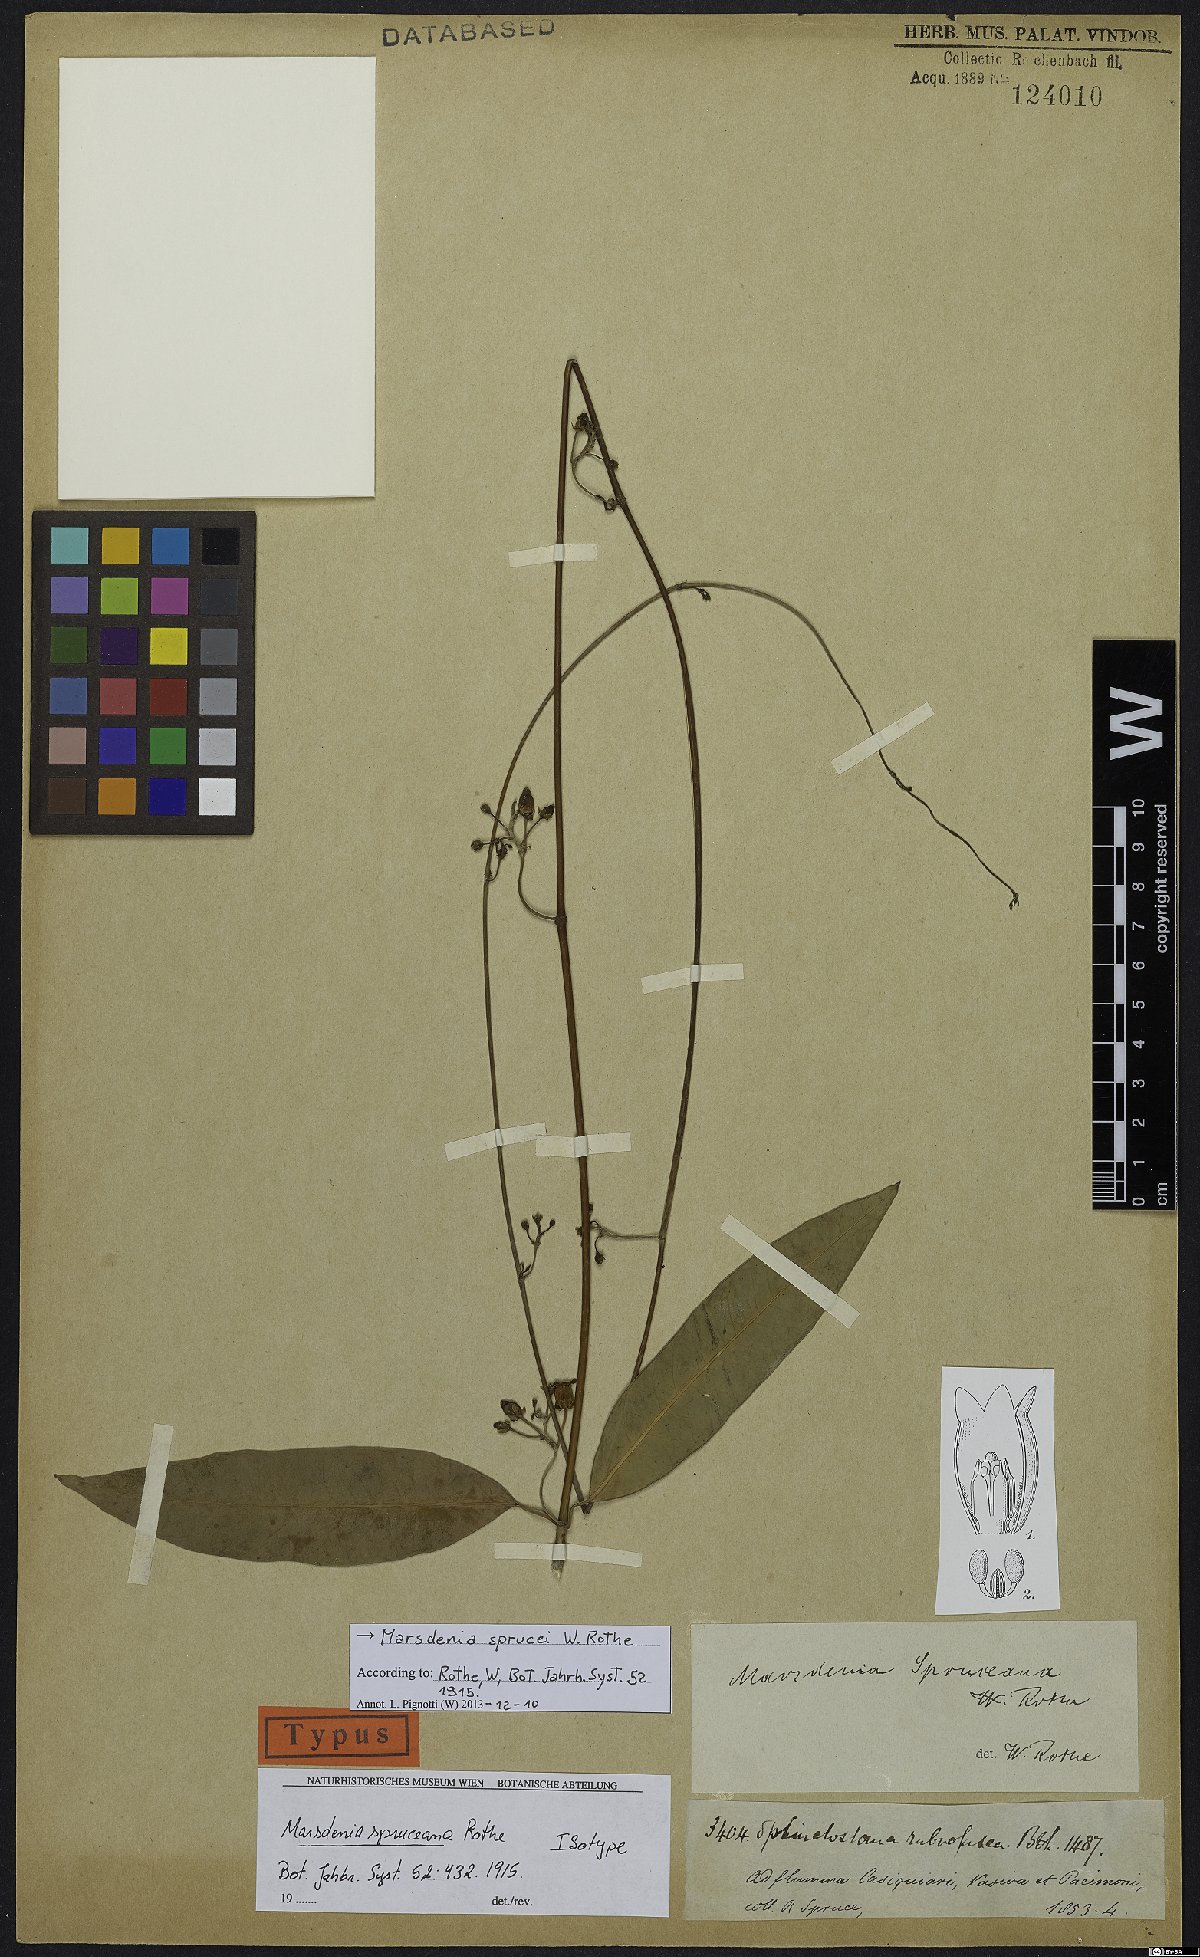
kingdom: Plantae
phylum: Tracheophyta
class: Magnoliopsida
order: Gentianales
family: Apocynaceae
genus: Ruehssia
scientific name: Ruehssia sprucei
